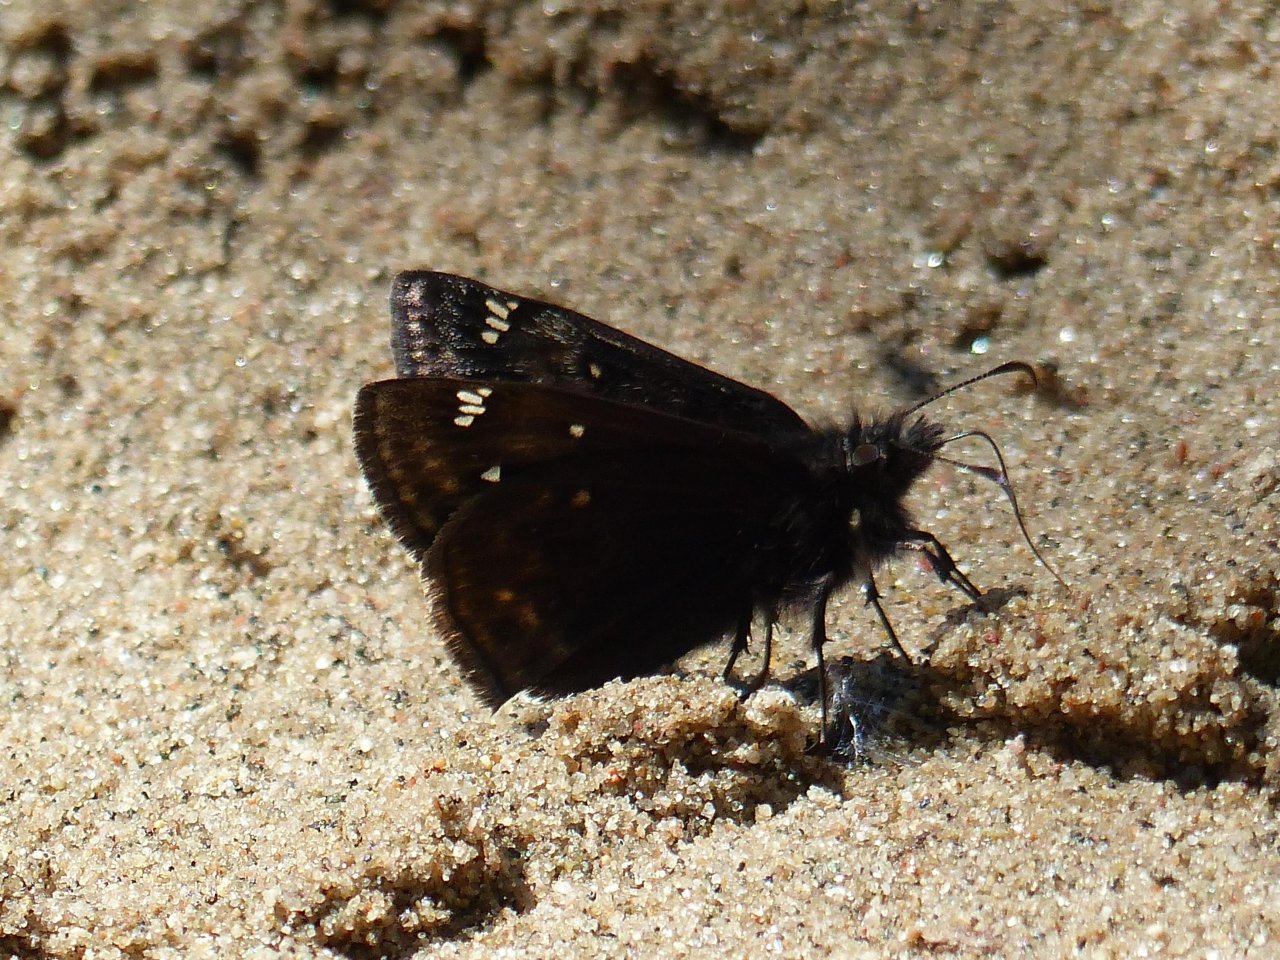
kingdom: Animalia
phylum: Arthropoda
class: Insecta
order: Lepidoptera
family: Hesperiidae
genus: Gesta
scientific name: Gesta
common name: Juvenal's Duskywing
